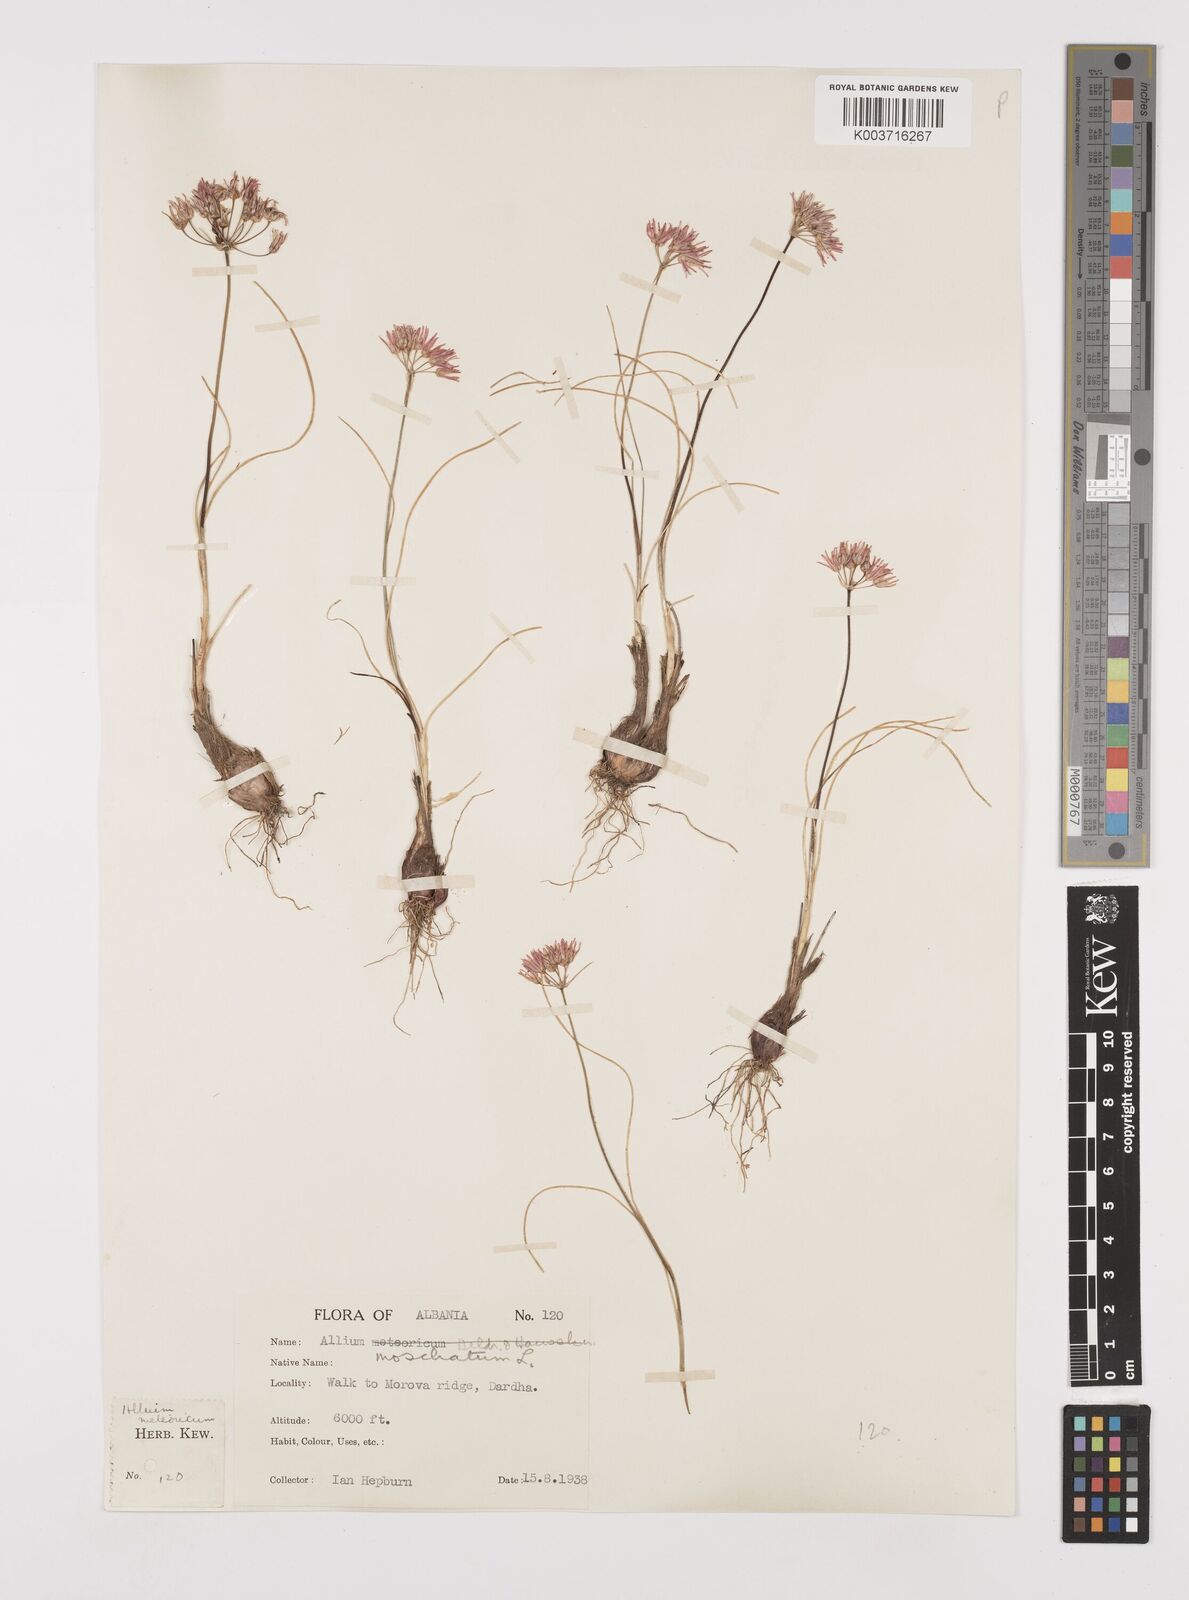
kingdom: Plantae
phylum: Tracheophyta
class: Liliopsida
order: Asparagales
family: Amaryllidaceae
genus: Allium
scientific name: Allium moschatum
